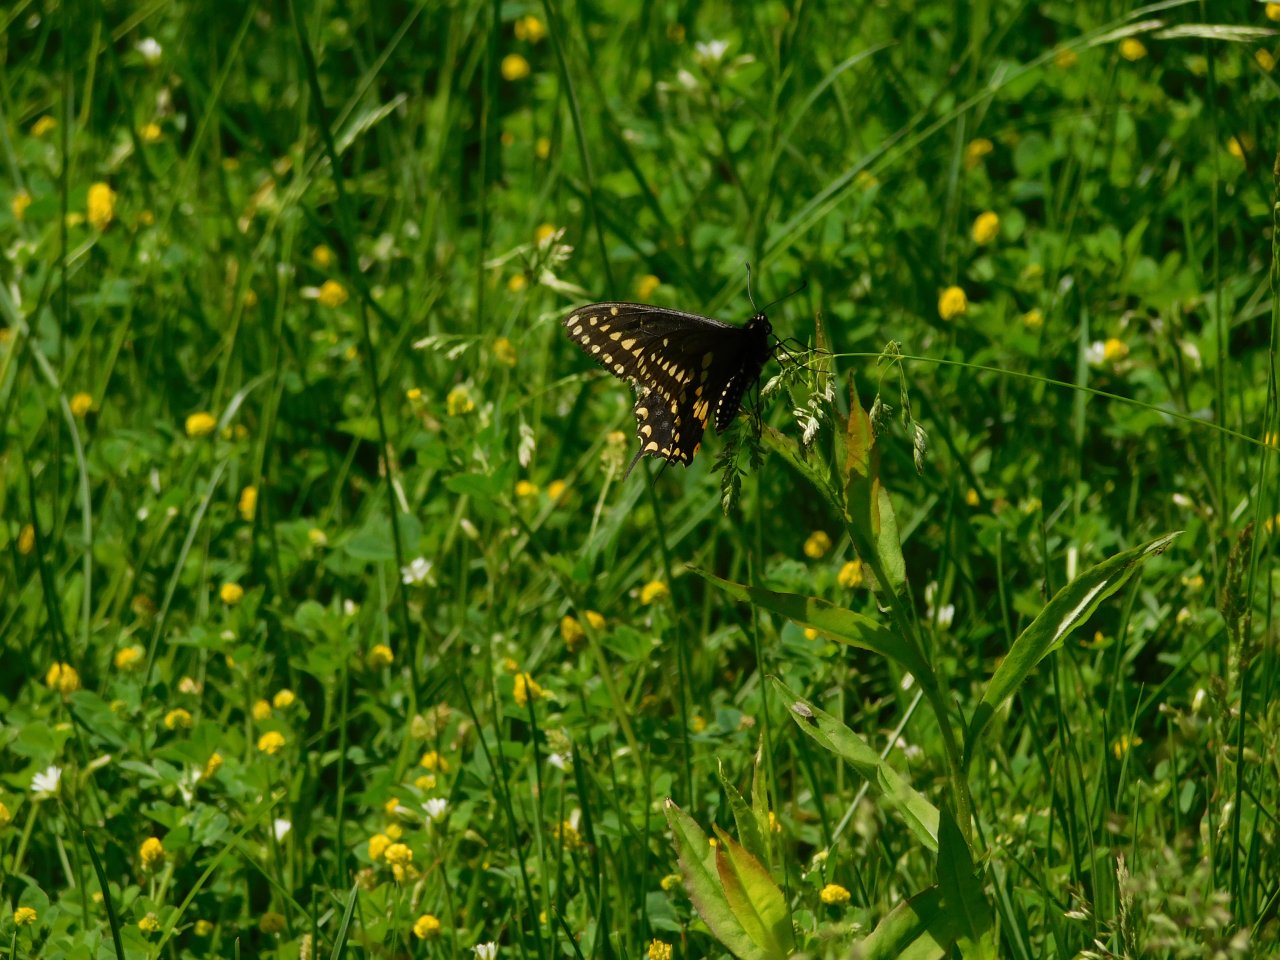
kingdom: Animalia
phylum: Arthropoda
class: Insecta
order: Lepidoptera
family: Papilionidae
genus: Papilio
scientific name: Papilio polyxenes
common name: Black Swallowtail
